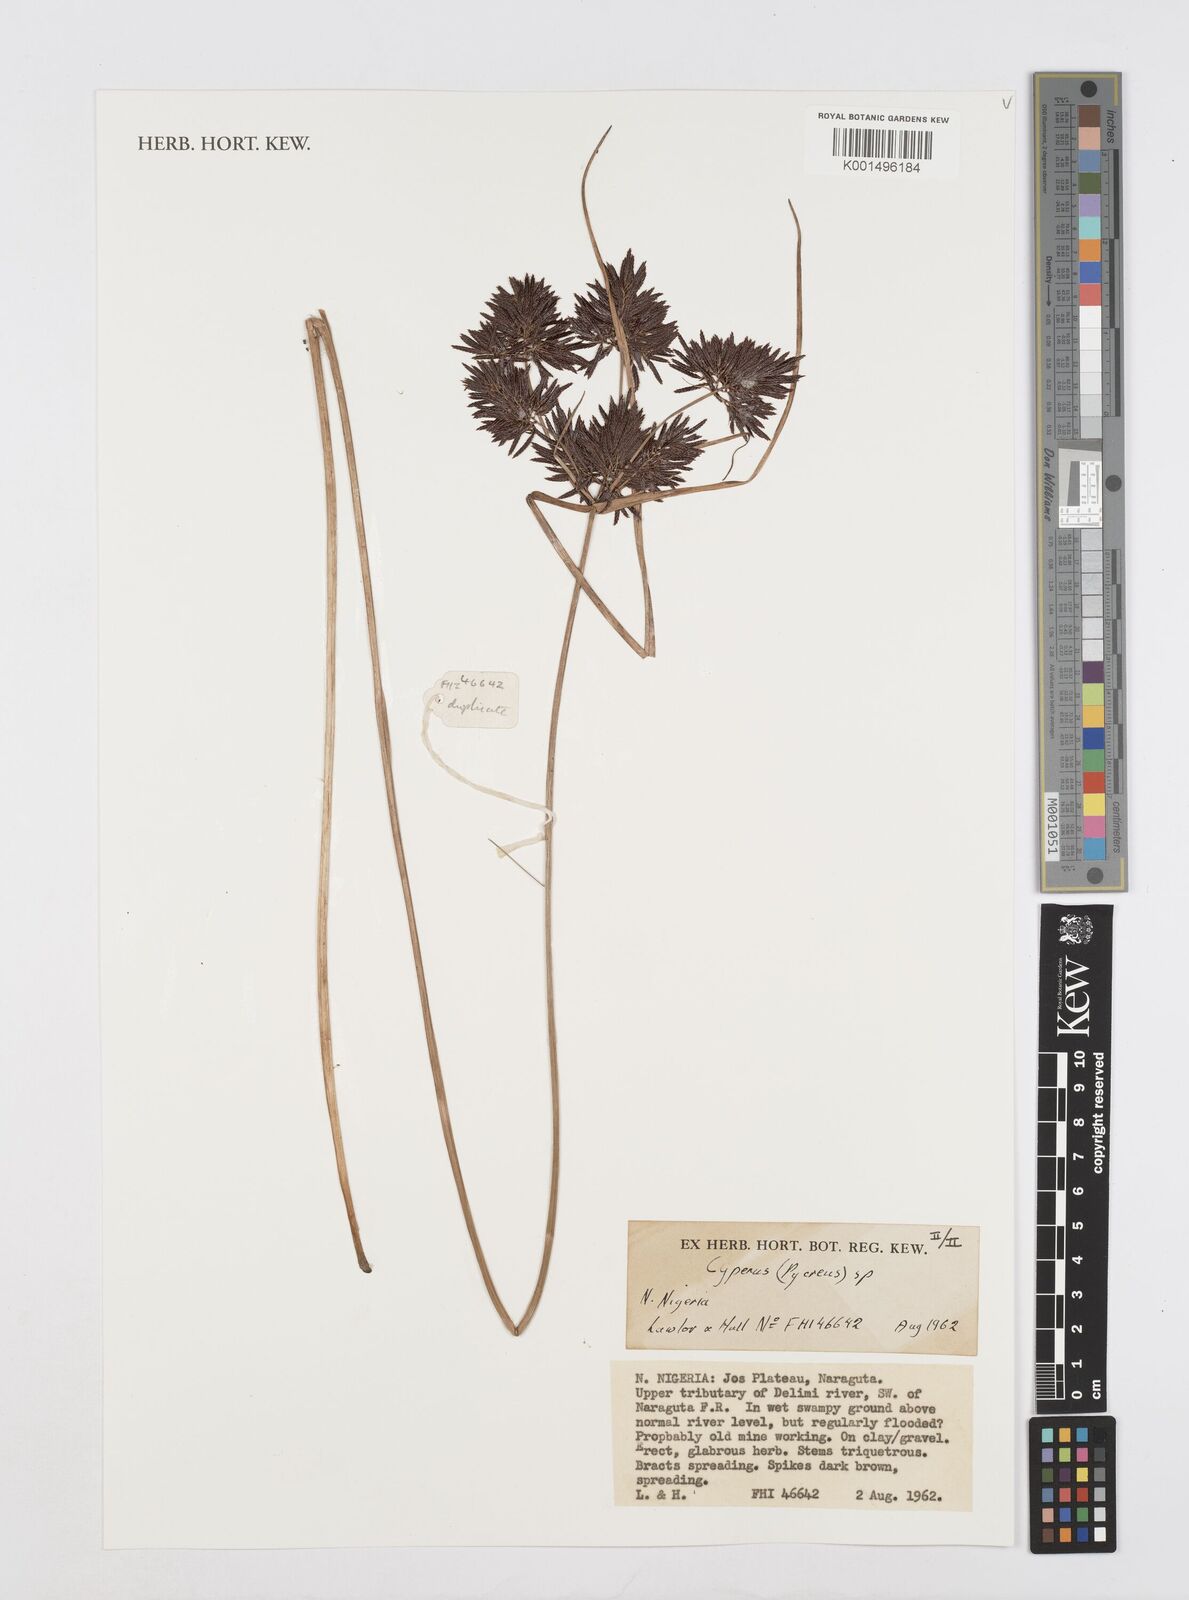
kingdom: Plantae
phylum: Tracheophyta
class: Liliopsida
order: Poales
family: Cyperaceae
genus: Cyperus
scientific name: Cyperus nuerensis
